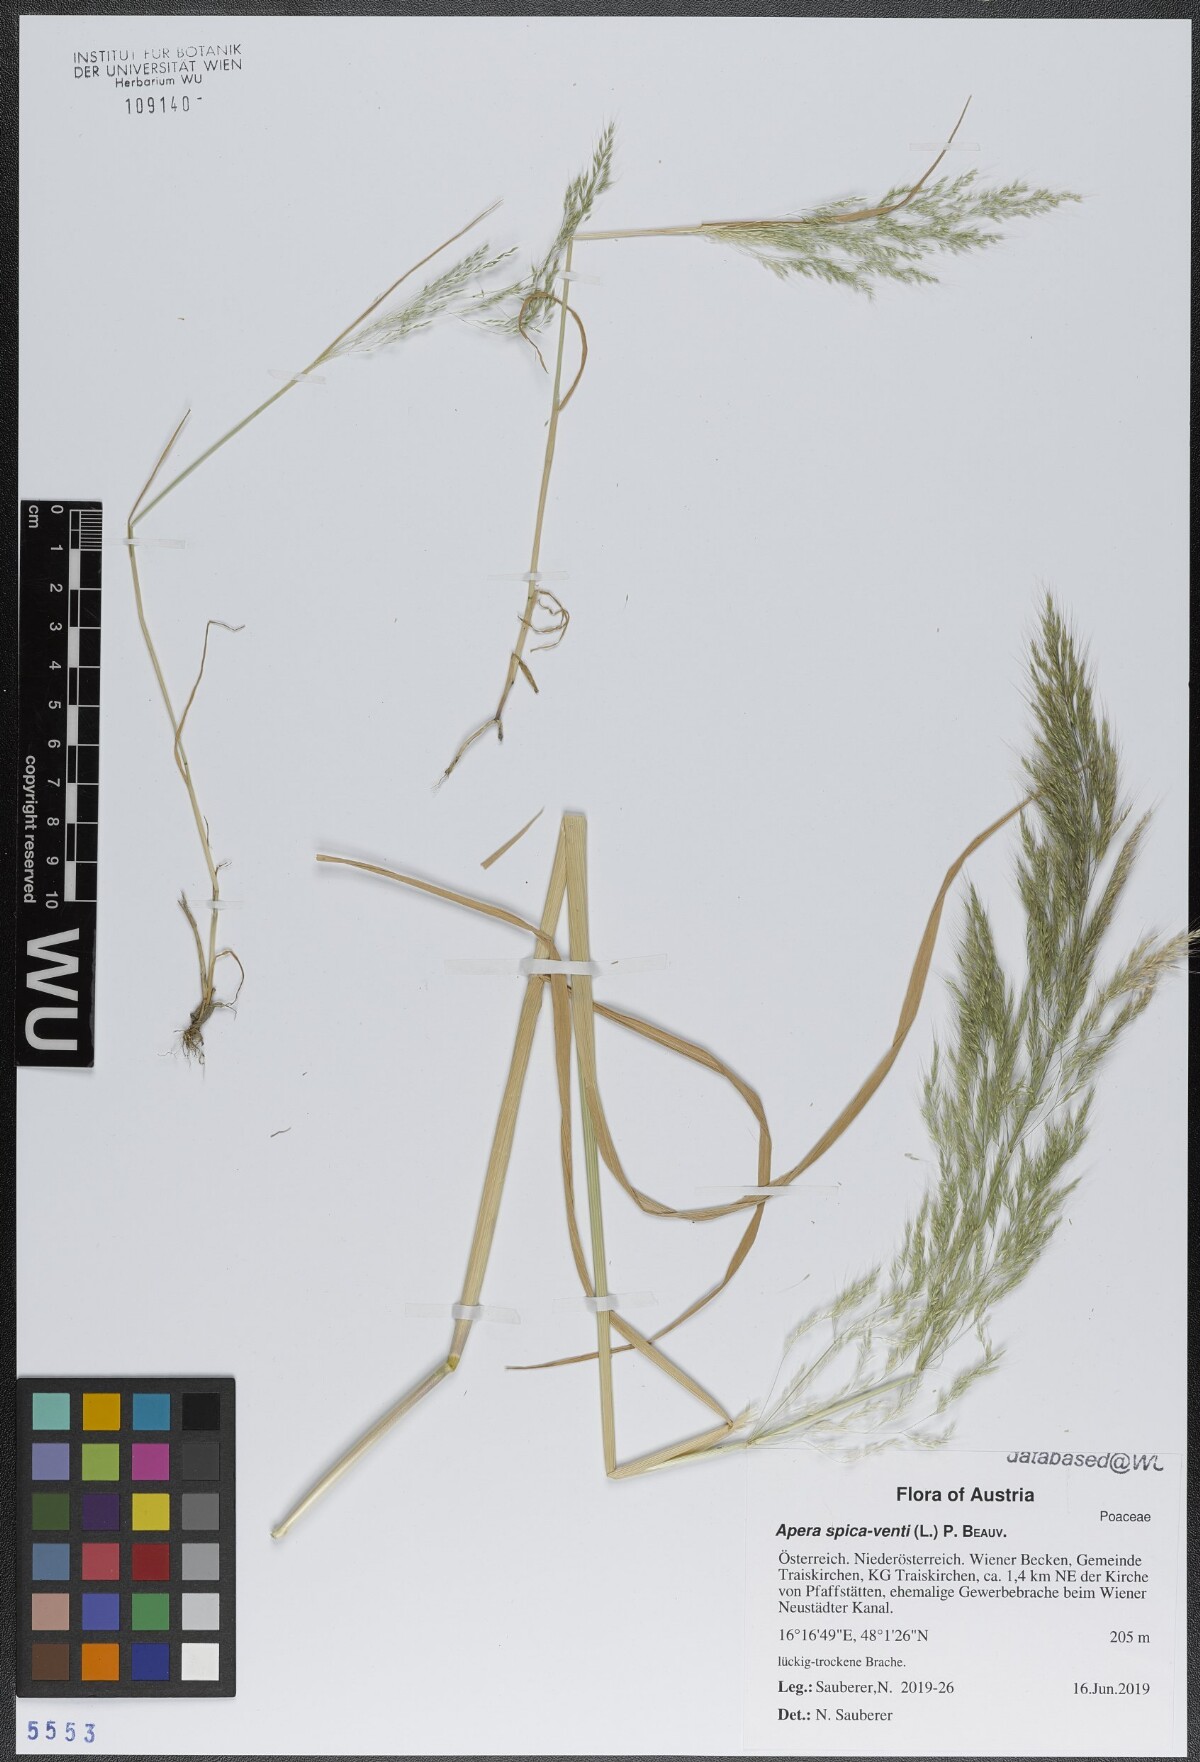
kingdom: Plantae
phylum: Tracheophyta
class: Liliopsida
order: Poales
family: Poaceae
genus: Apera
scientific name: Apera spica-venti
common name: Loose silky-bent
